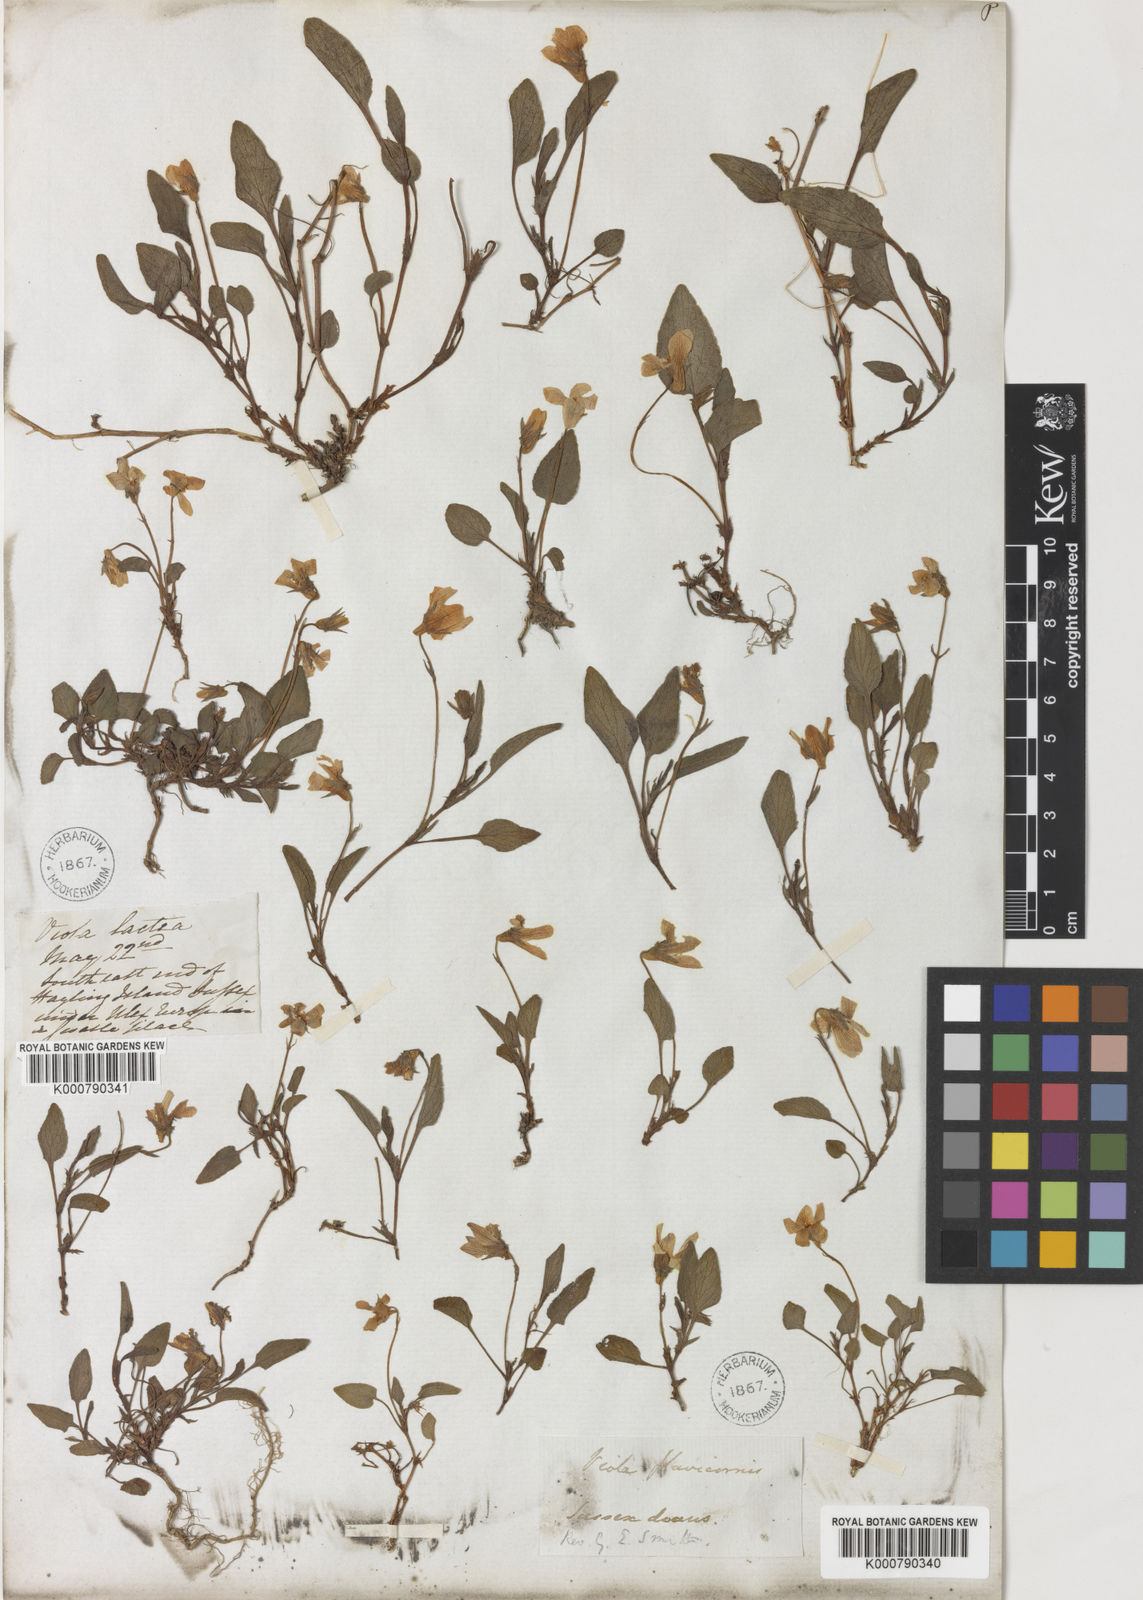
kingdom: Plantae
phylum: Tracheophyta
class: Magnoliopsida
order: Malpighiales
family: Violaceae
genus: Viola
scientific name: Viola lactea
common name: Pale dog-violet
